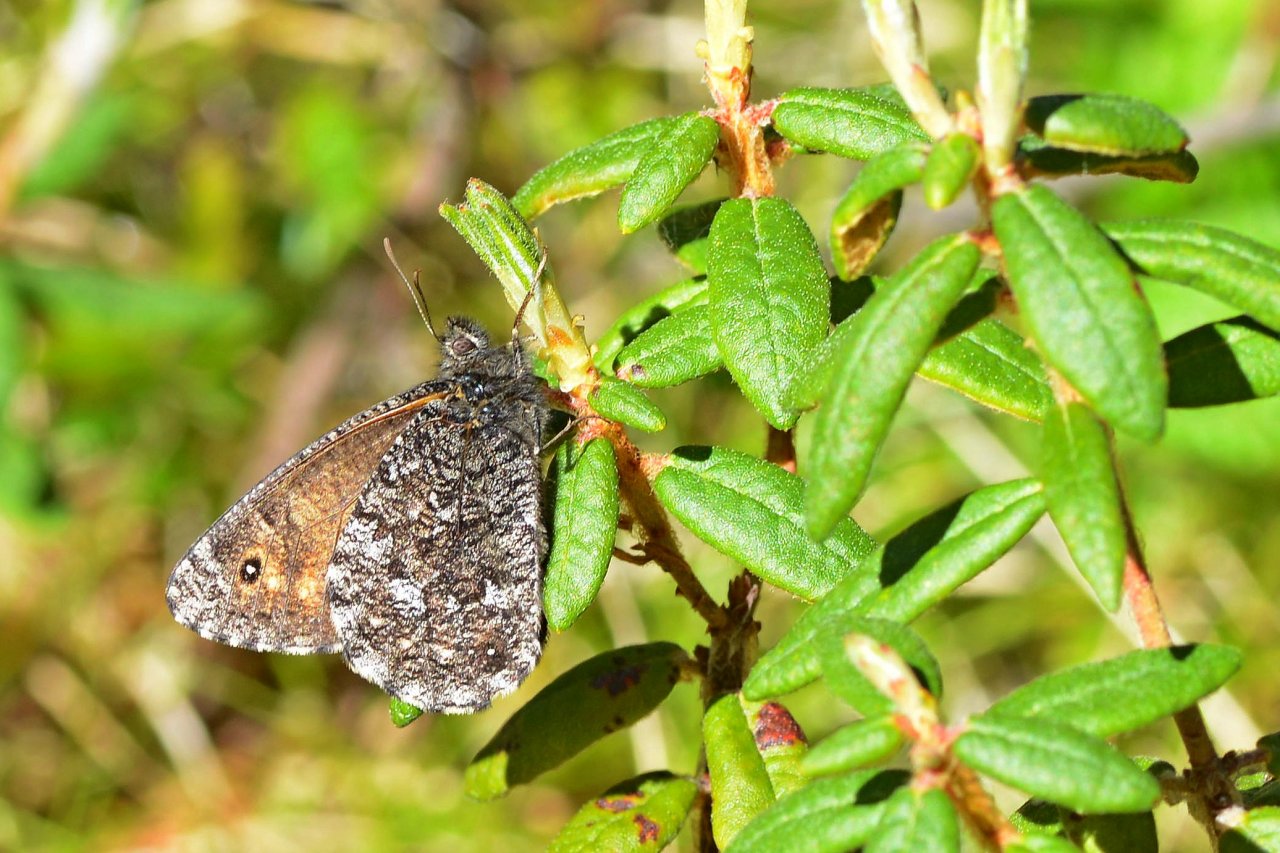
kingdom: Animalia
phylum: Arthropoda
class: Insecta
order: Lepidoptera
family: Nymphalidae
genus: Oeneis
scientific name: Oeneis jutta
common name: Jutta Arctic
